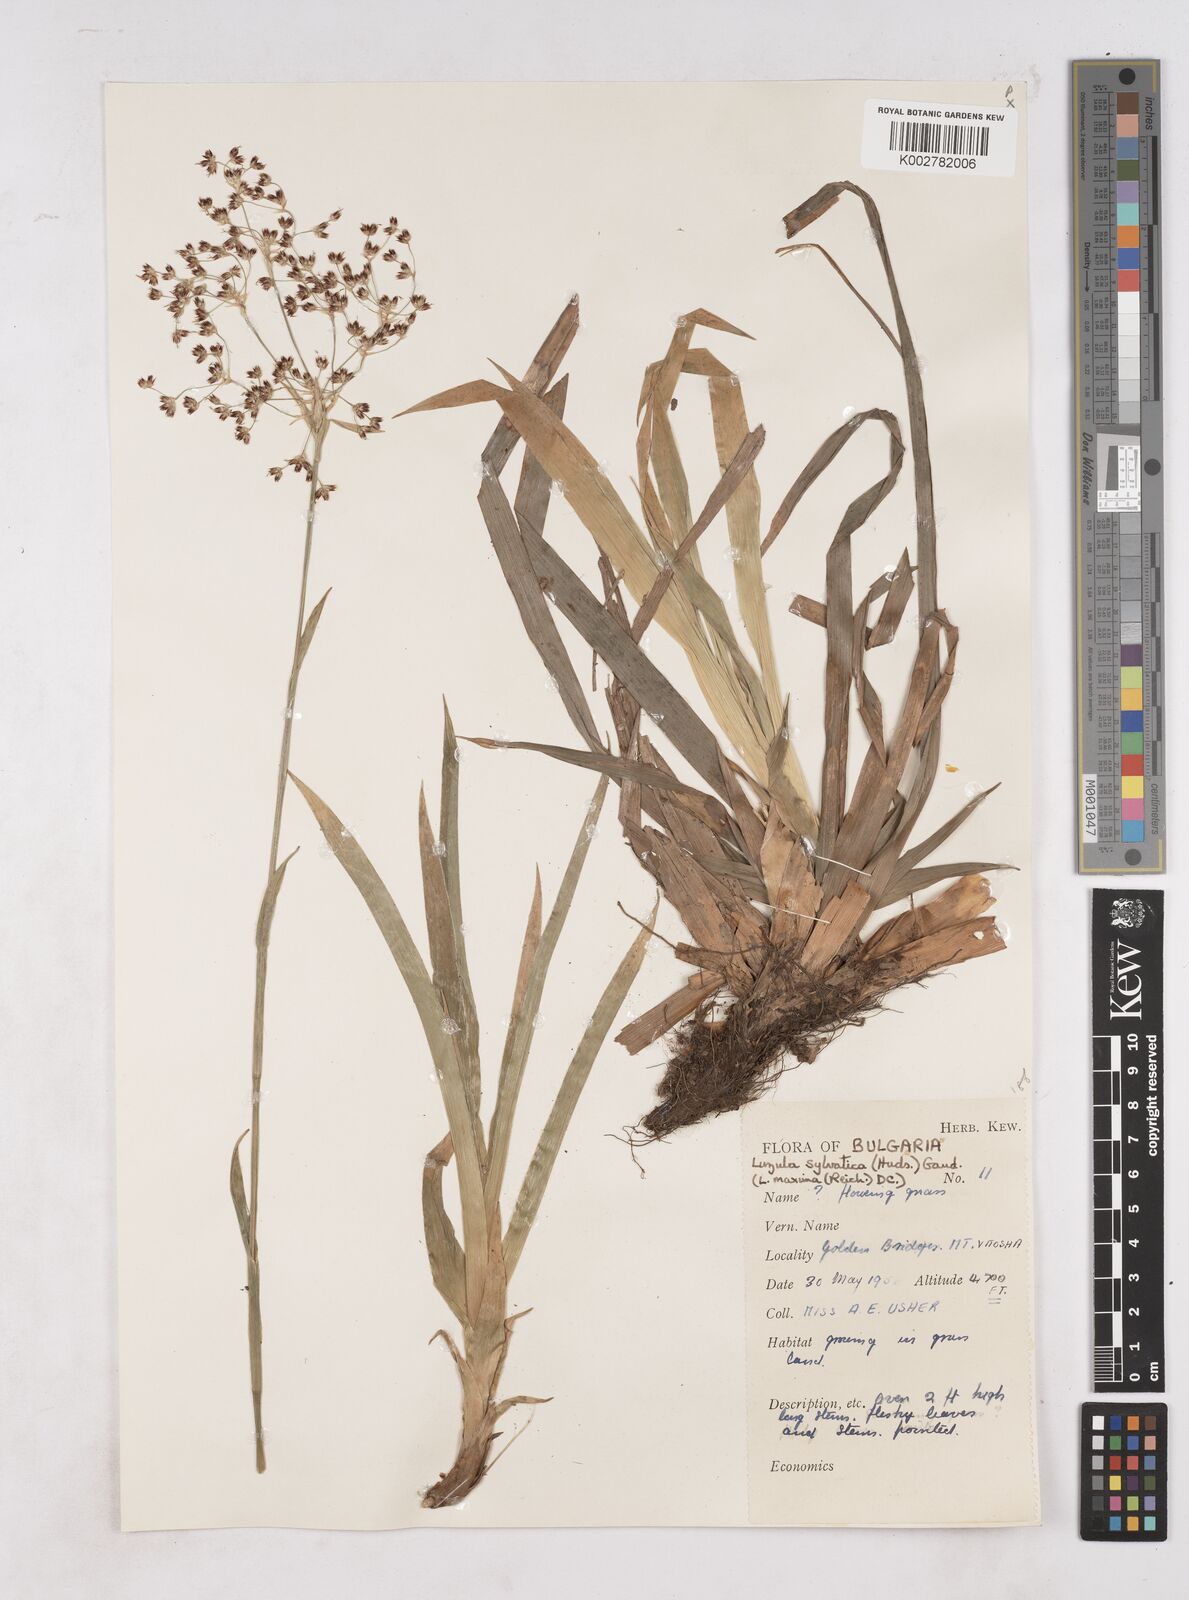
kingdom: Plantae
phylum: Tracheophyta
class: Liliopsida
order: Poales
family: Juncaceae
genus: Luzula
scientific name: Luzula sylvatica
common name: Great wood-rush
